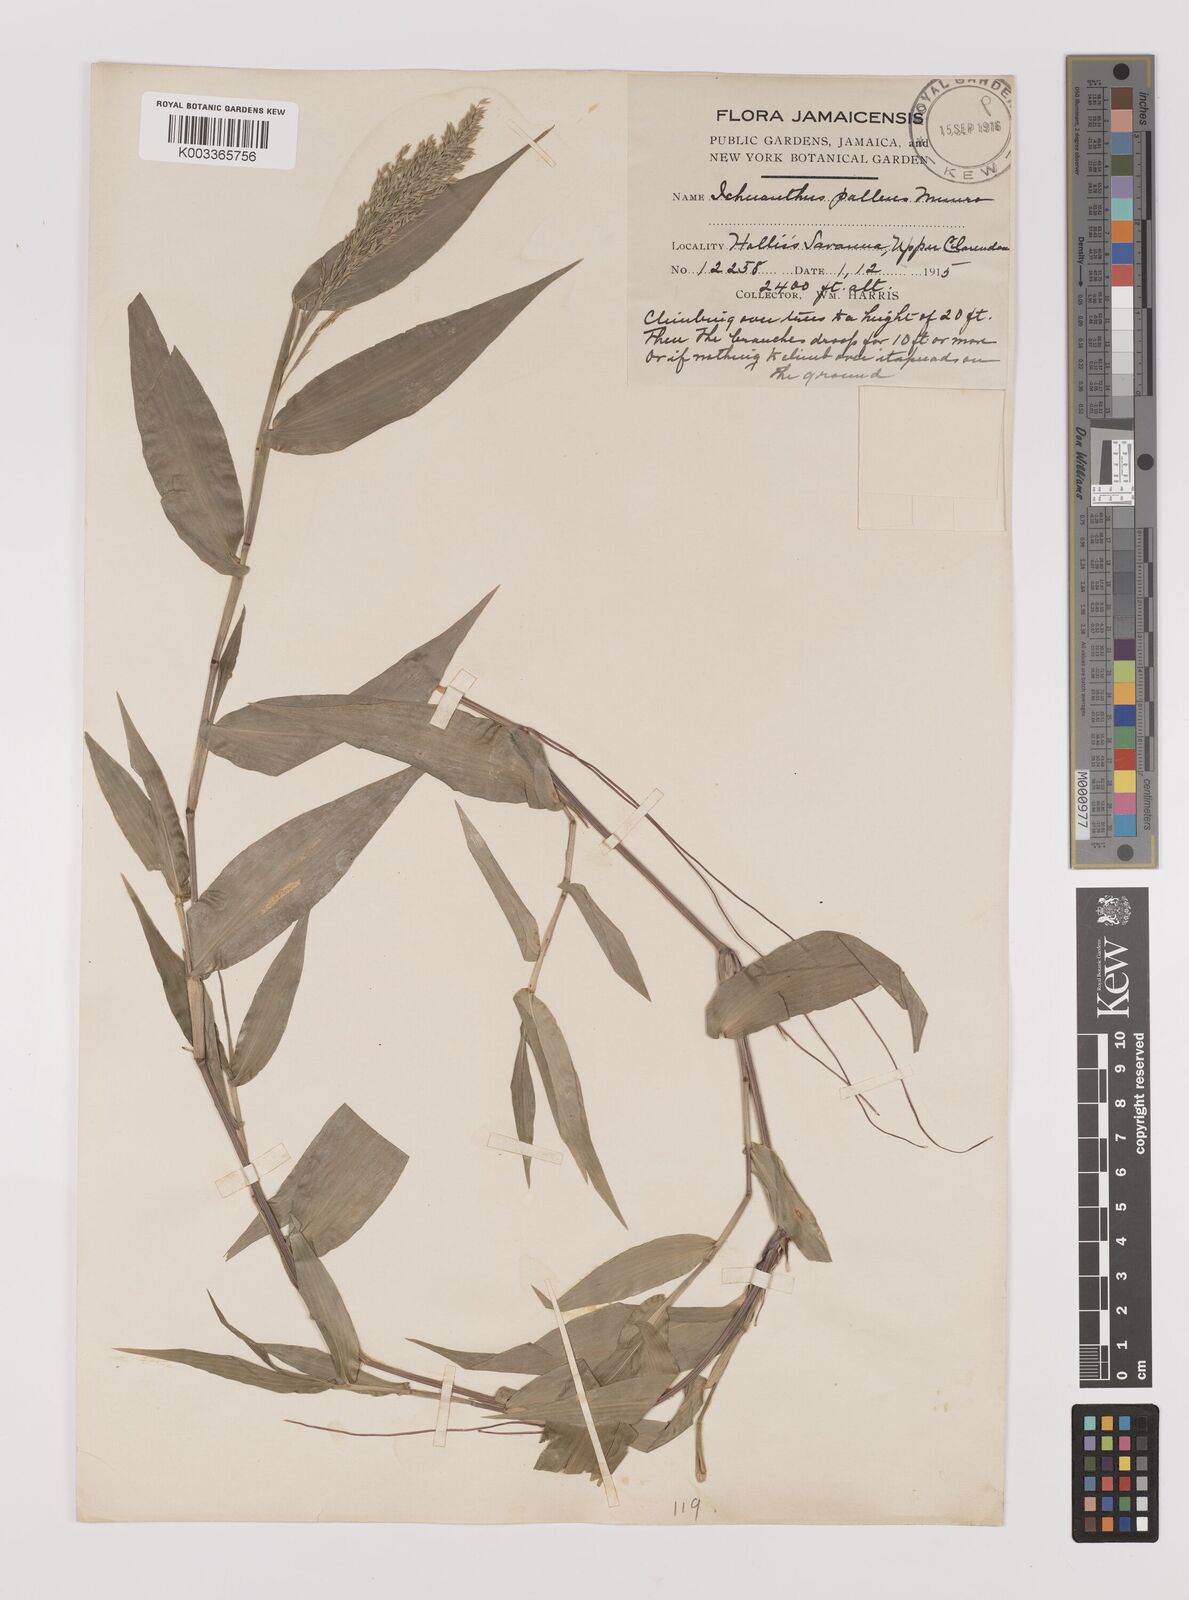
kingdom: Plantae
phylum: Tracheophyta
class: Liliopsida
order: Poales
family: Poaceae
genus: Ichnanthus
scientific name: Ichnanthus pallens
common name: Water grass
